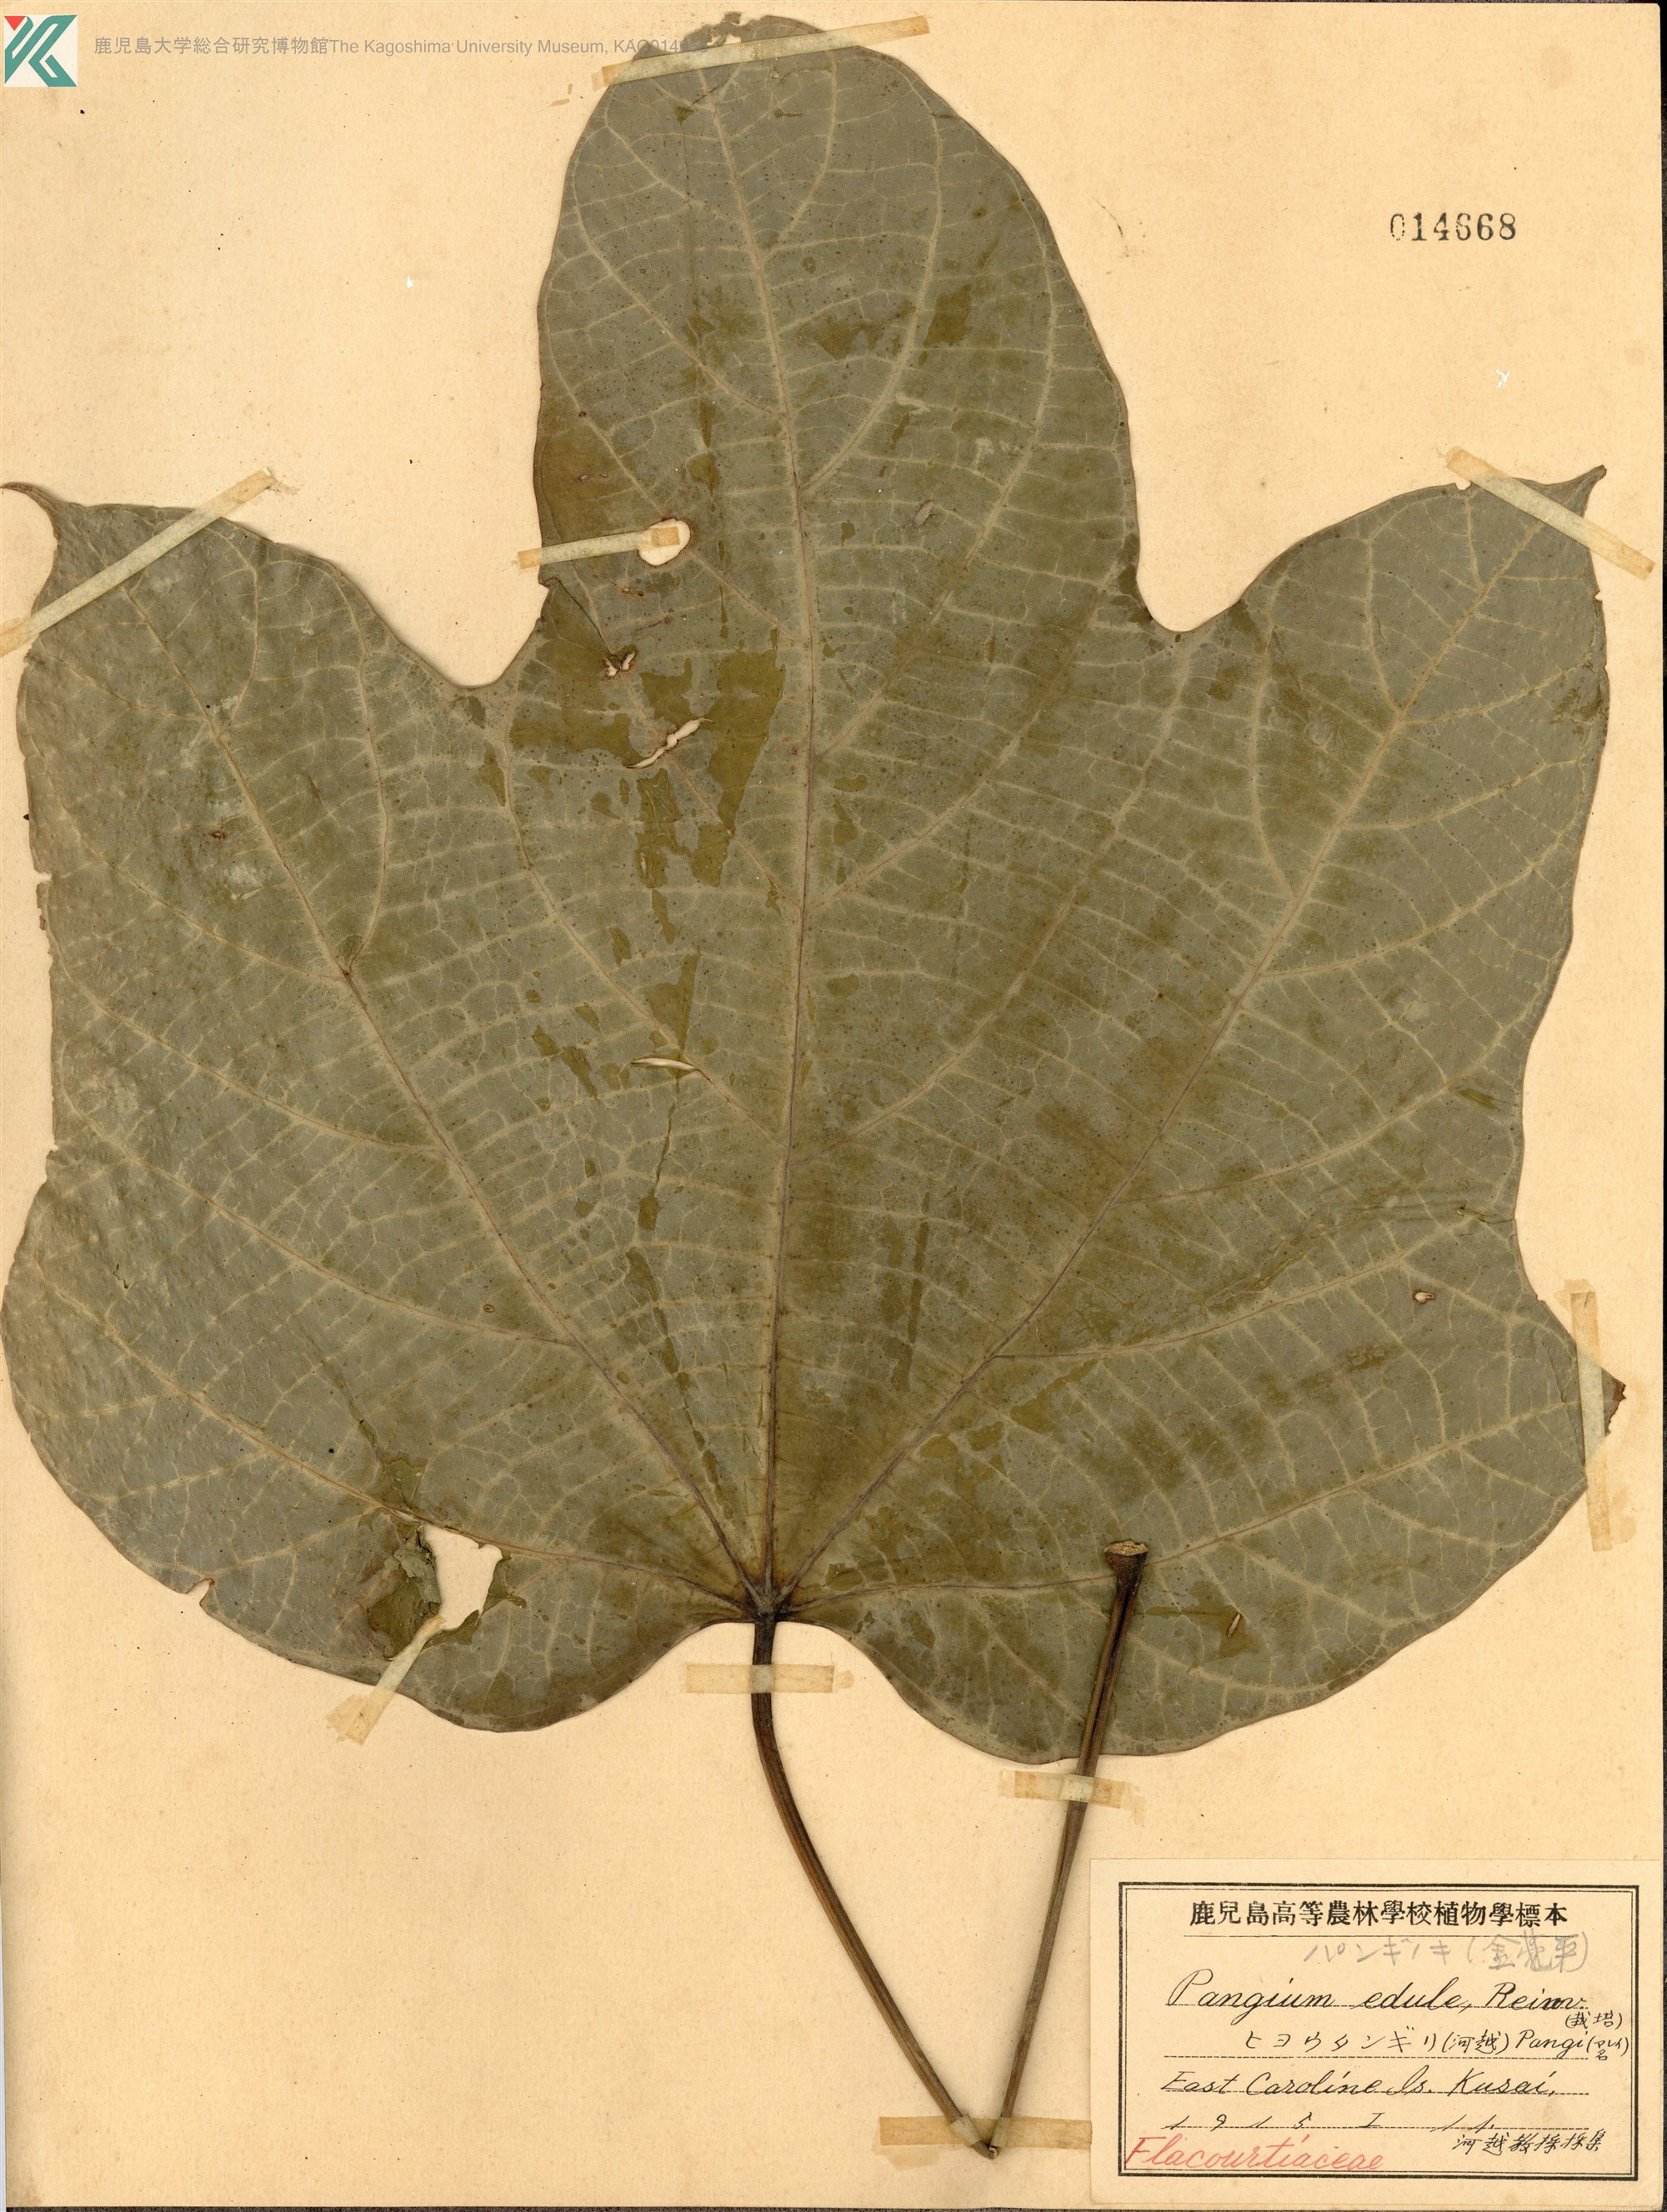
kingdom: Plantae
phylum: Tracheophyta
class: Magnoliopsida
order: Malpighiales
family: Achariaceae
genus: Pangium
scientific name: Pangium edule
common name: Football fruit
